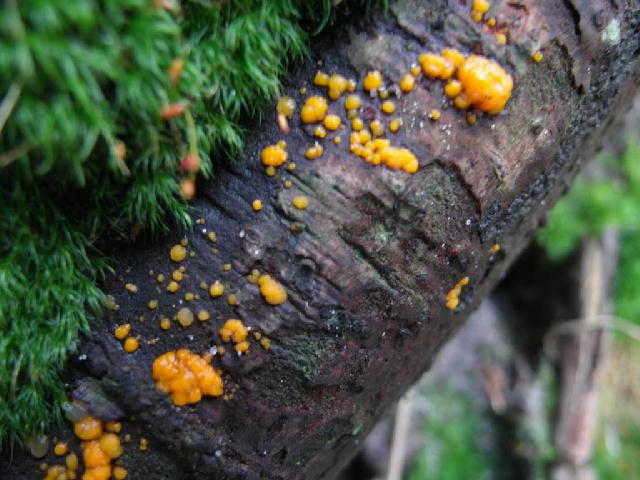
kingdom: Fungi
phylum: Basidiomycota
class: Dacrymycetes
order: Dacrymycetales
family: Dacrymycetaceae
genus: Dacrymyces
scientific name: Dacrymyces stillatus
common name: almindelig tåresvamp
